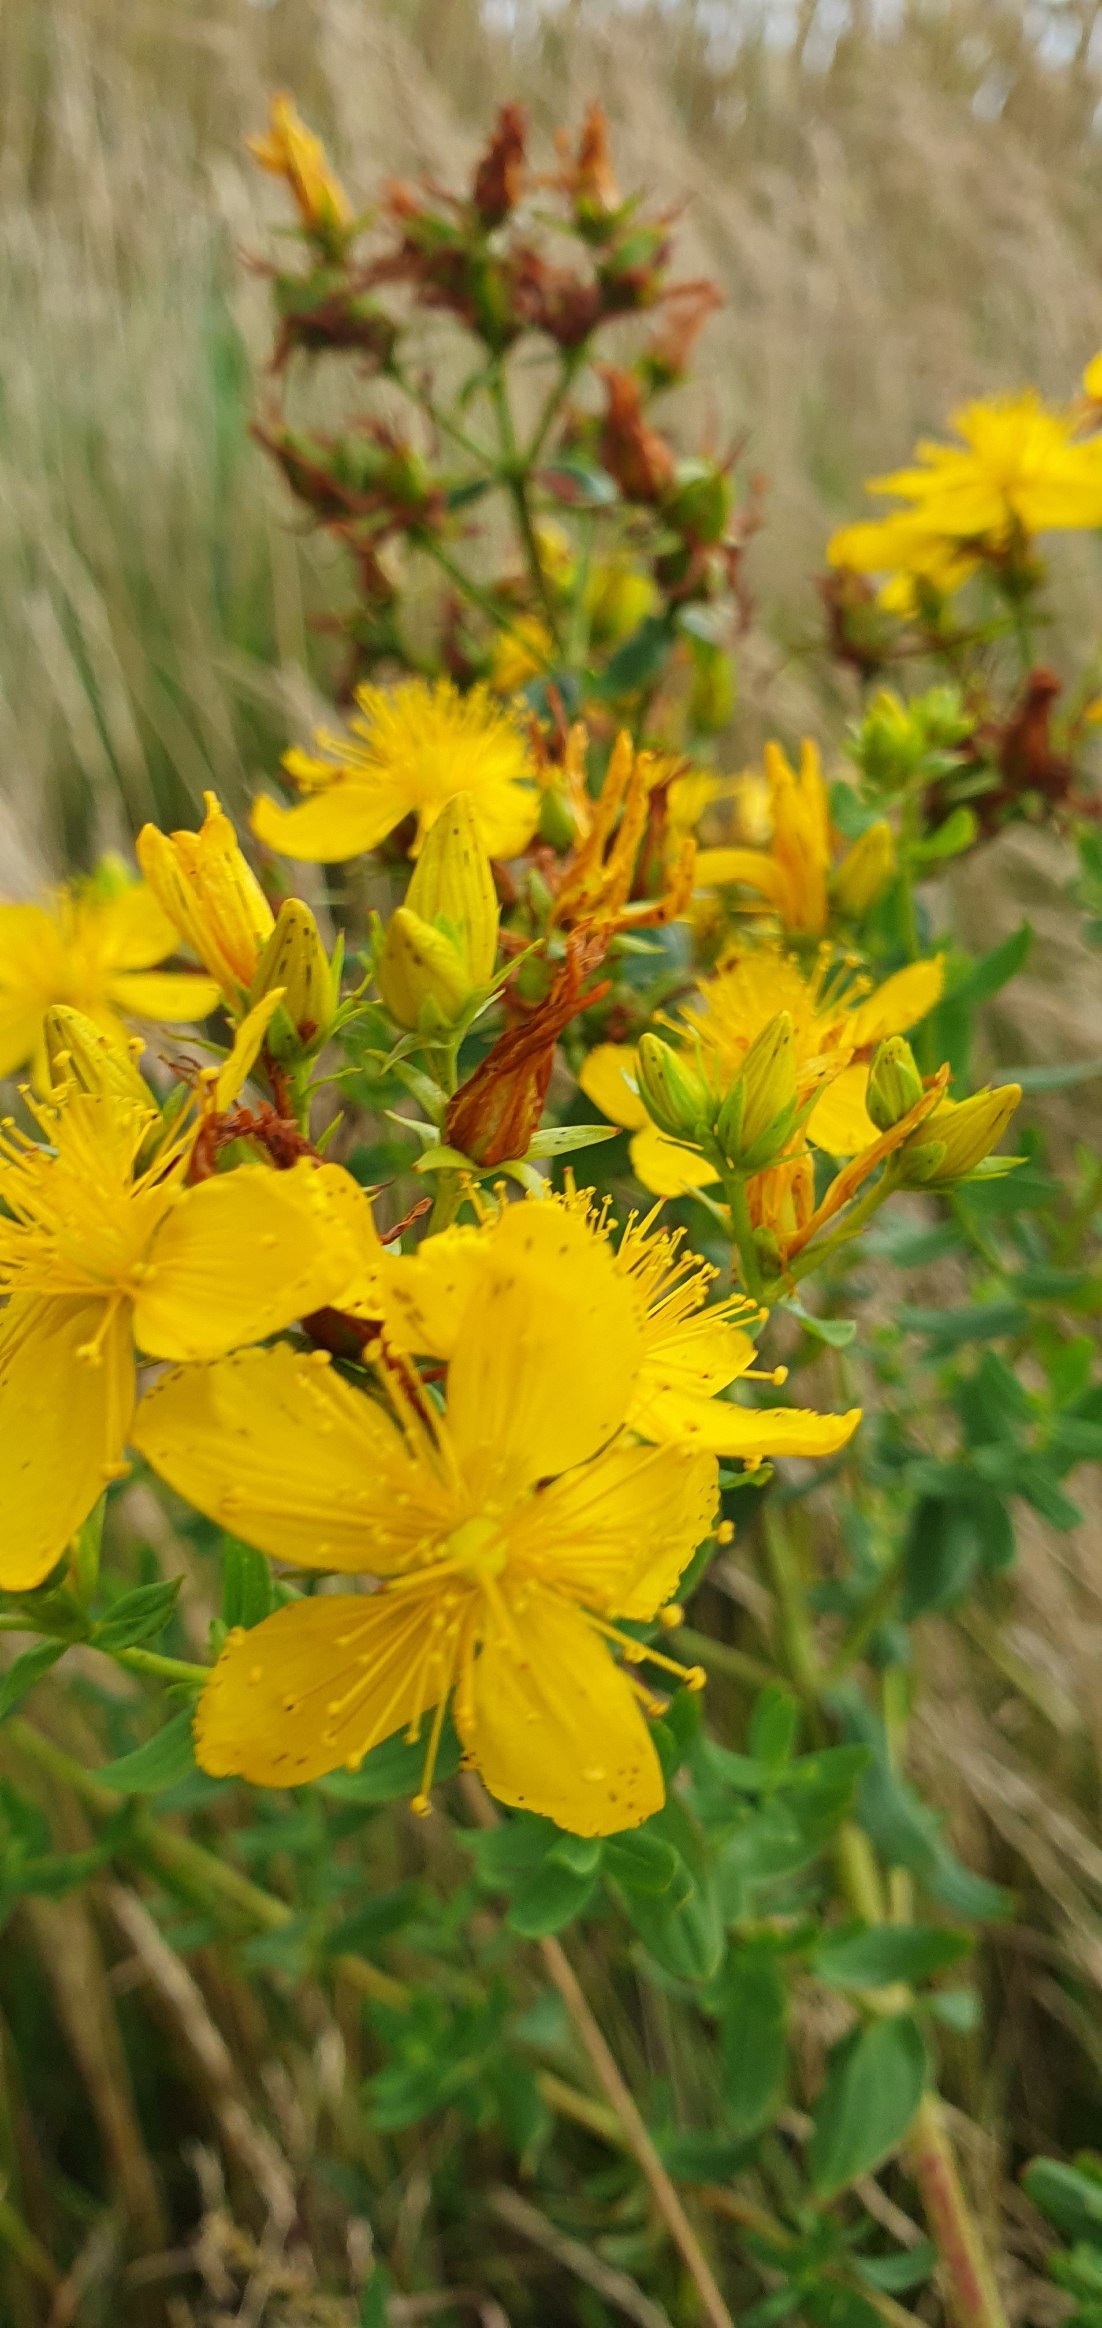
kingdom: Plantae
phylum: Tracheophyta
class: Magnoliopsida
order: Malpighiales
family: Hypericaceae
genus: Hypericum
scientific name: Hypericum perforatum
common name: Prikbladet perikon
